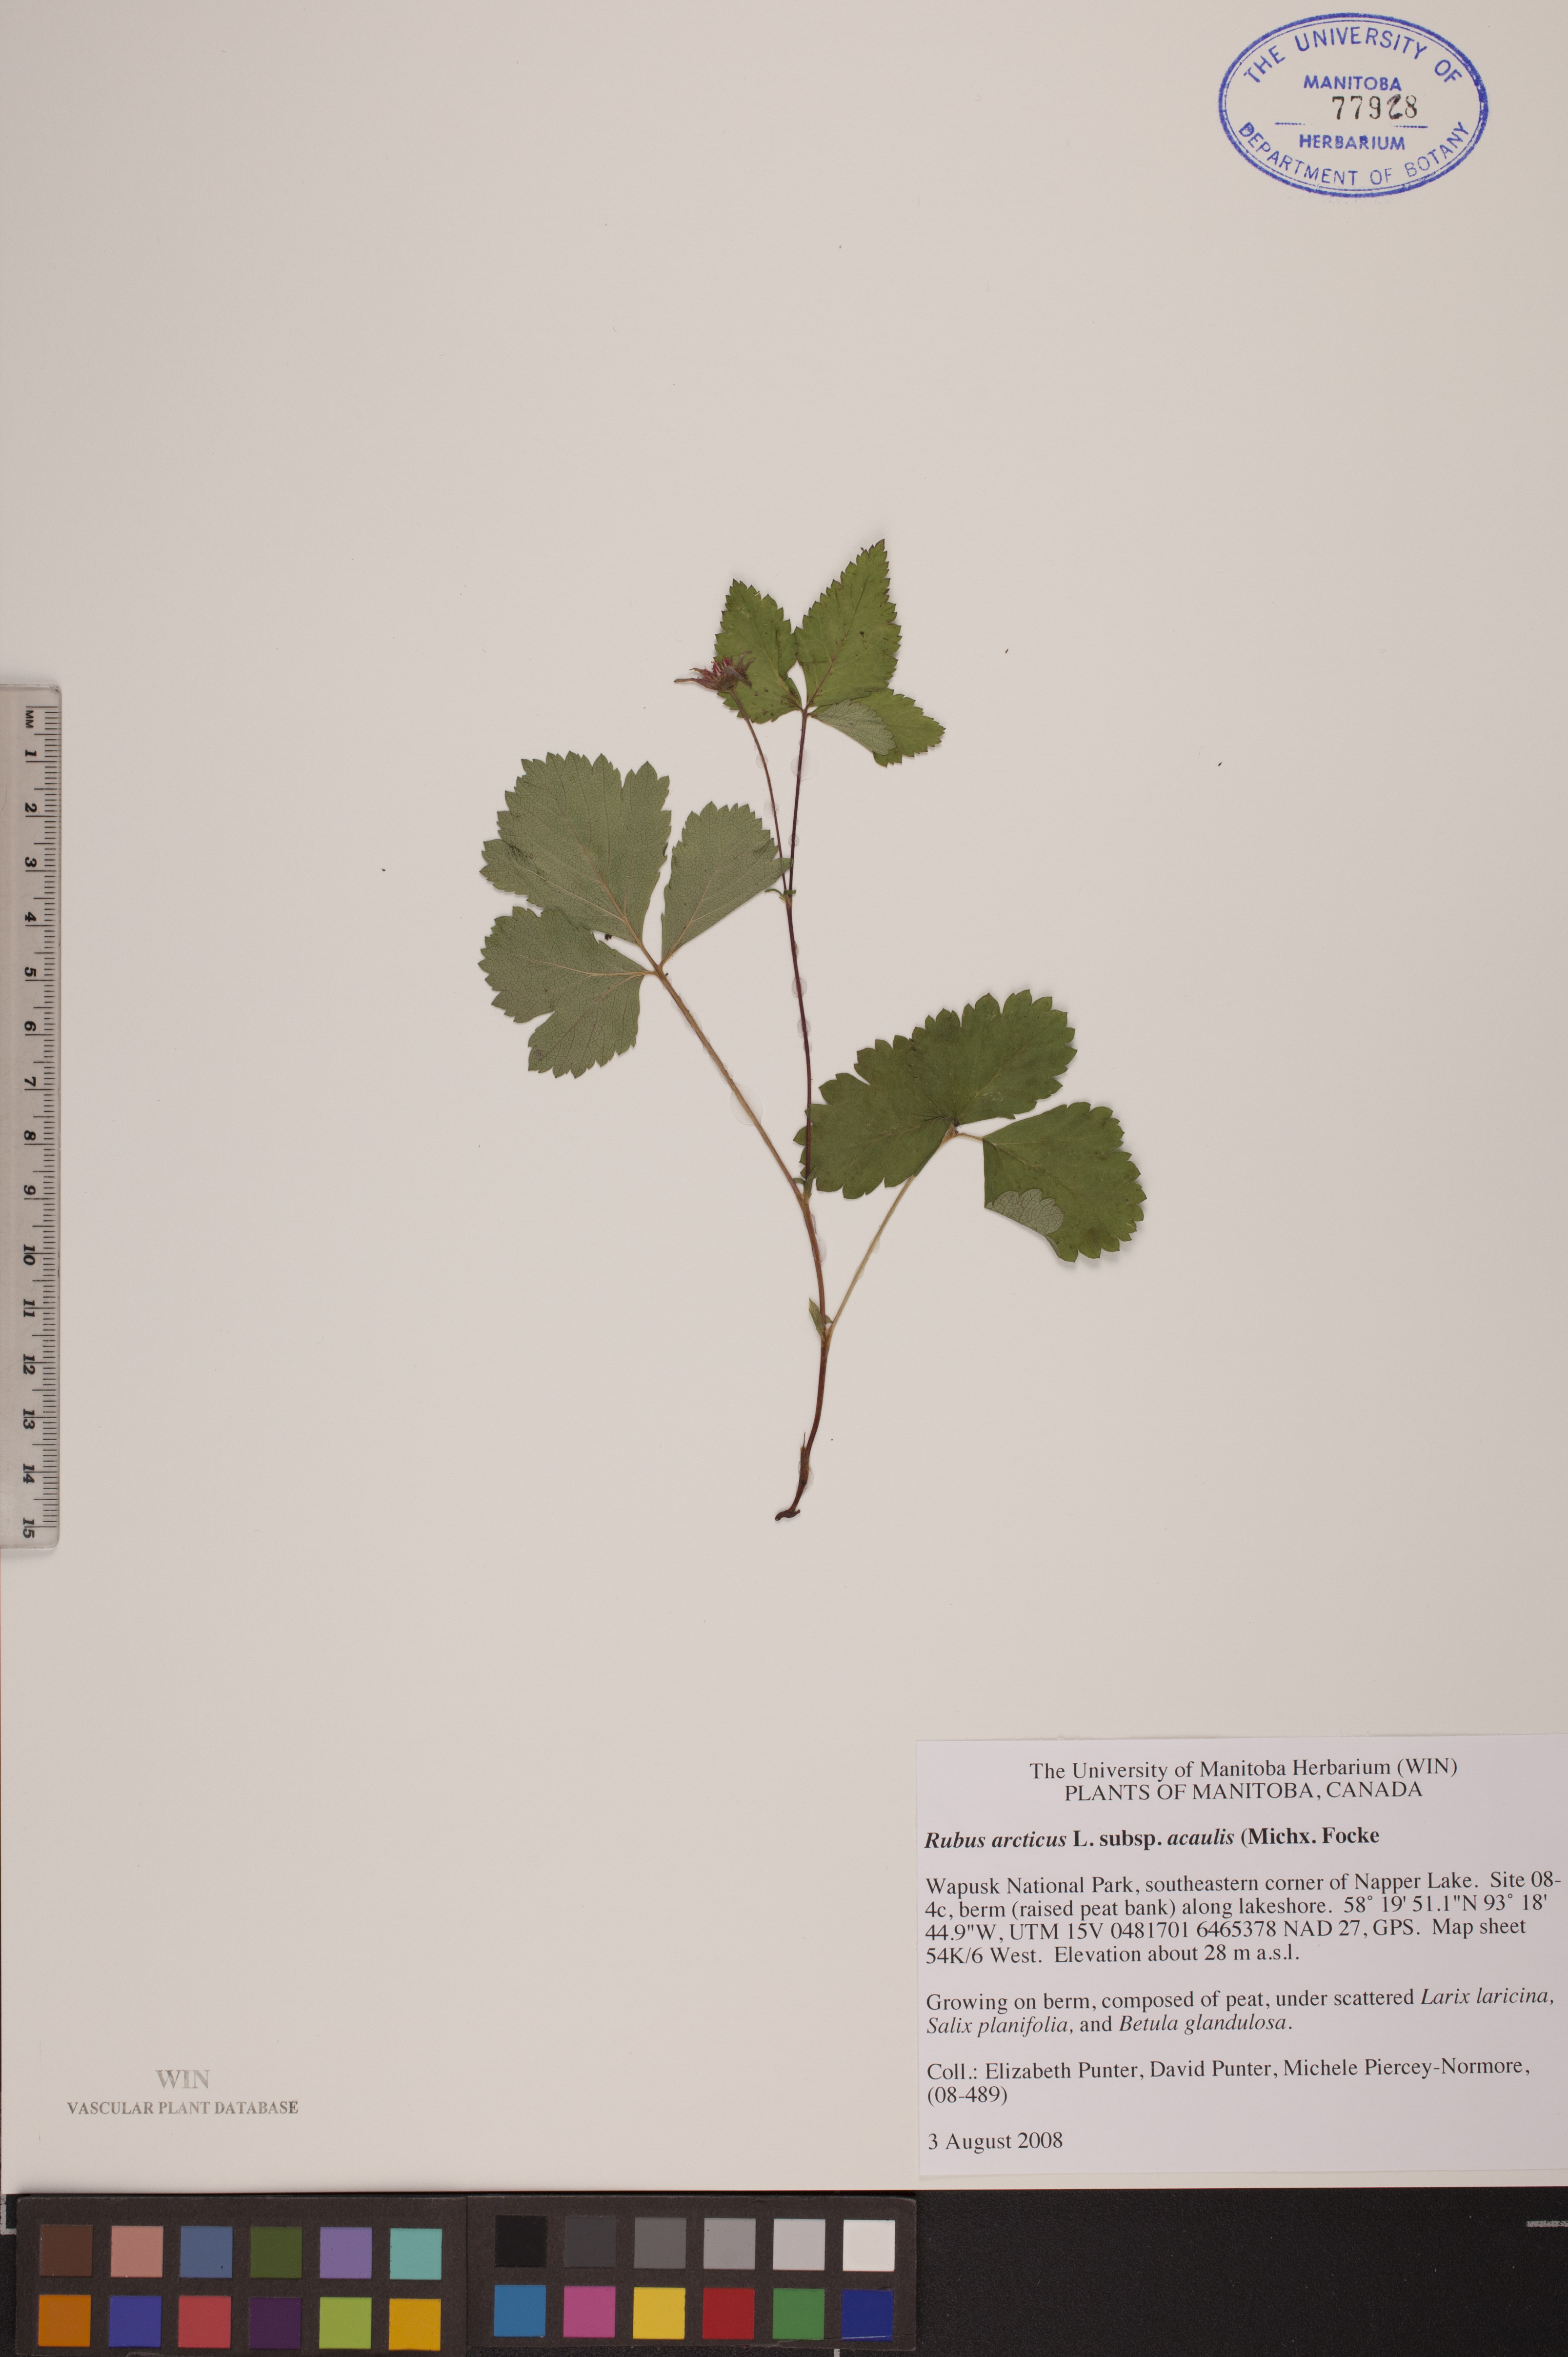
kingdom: Plantae
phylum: Tracheophyta
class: Magnoliopsida
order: Rosales
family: Rosaceae
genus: Rubus
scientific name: Rubus arcticus
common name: Arctic bramble
